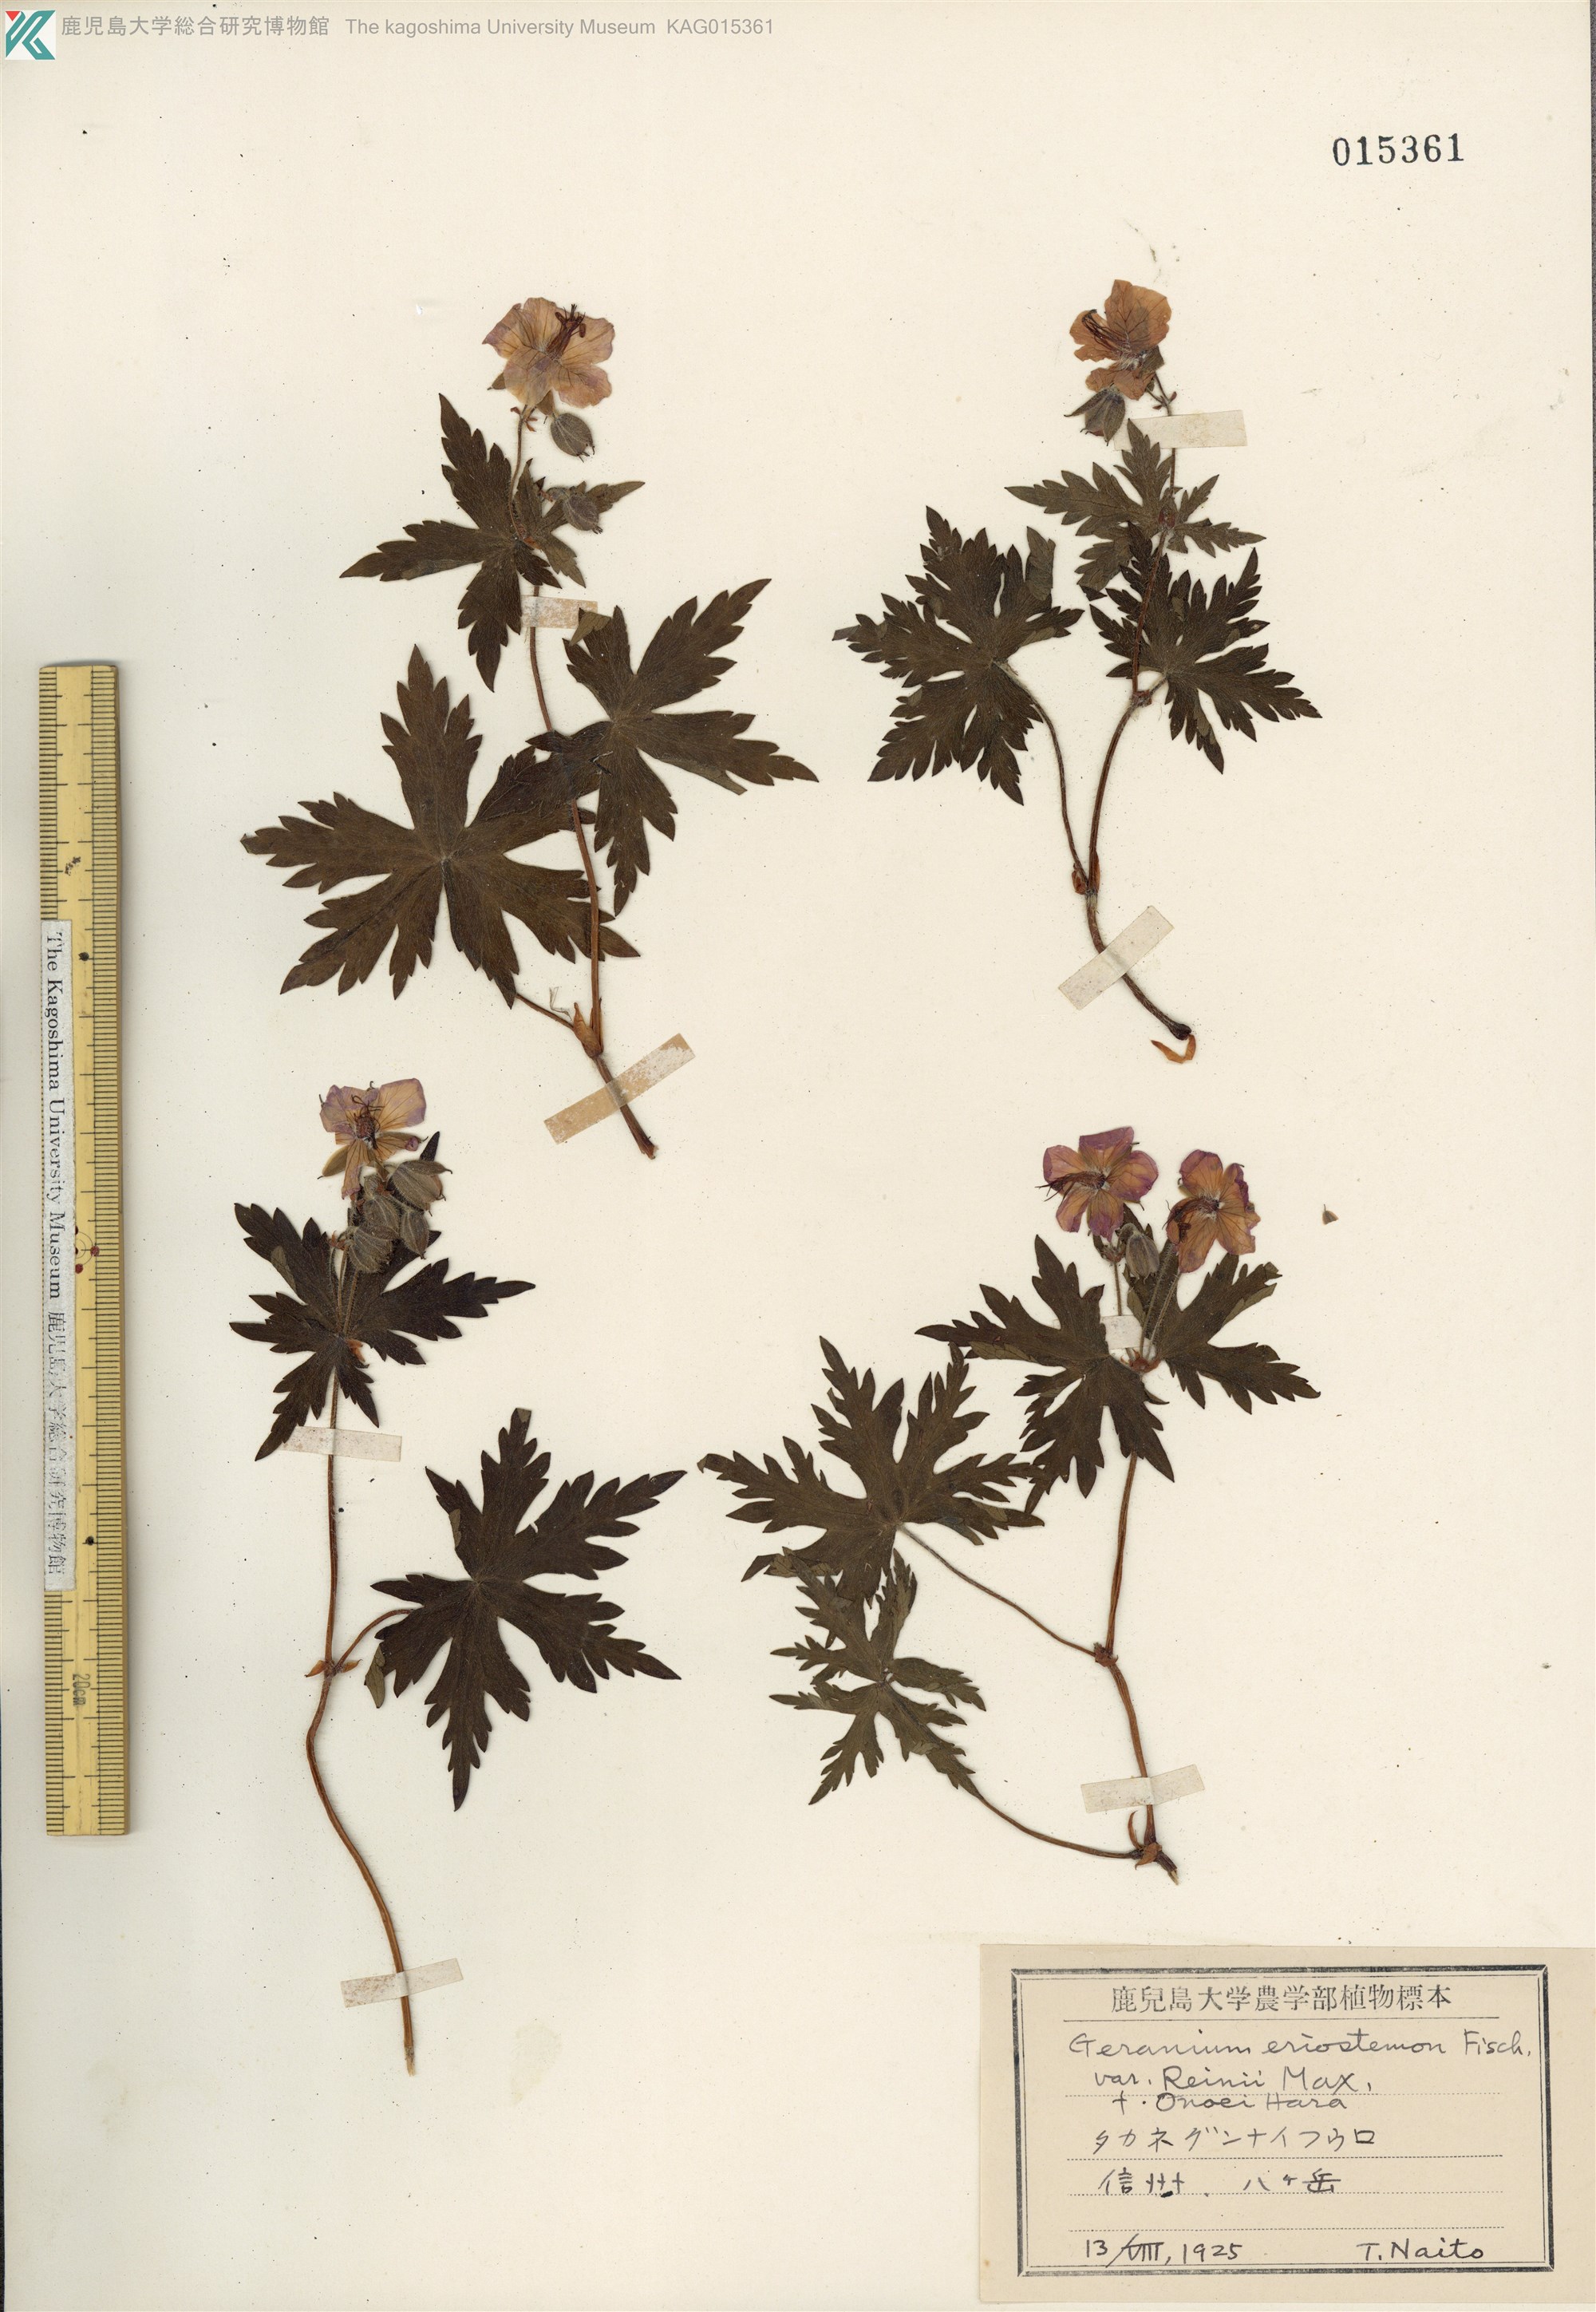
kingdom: Plantae
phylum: Tracheophyta
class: Magnoliopsida
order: Geraniales
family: Geraniaceae
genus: Geranium
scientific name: Geranium reinii
